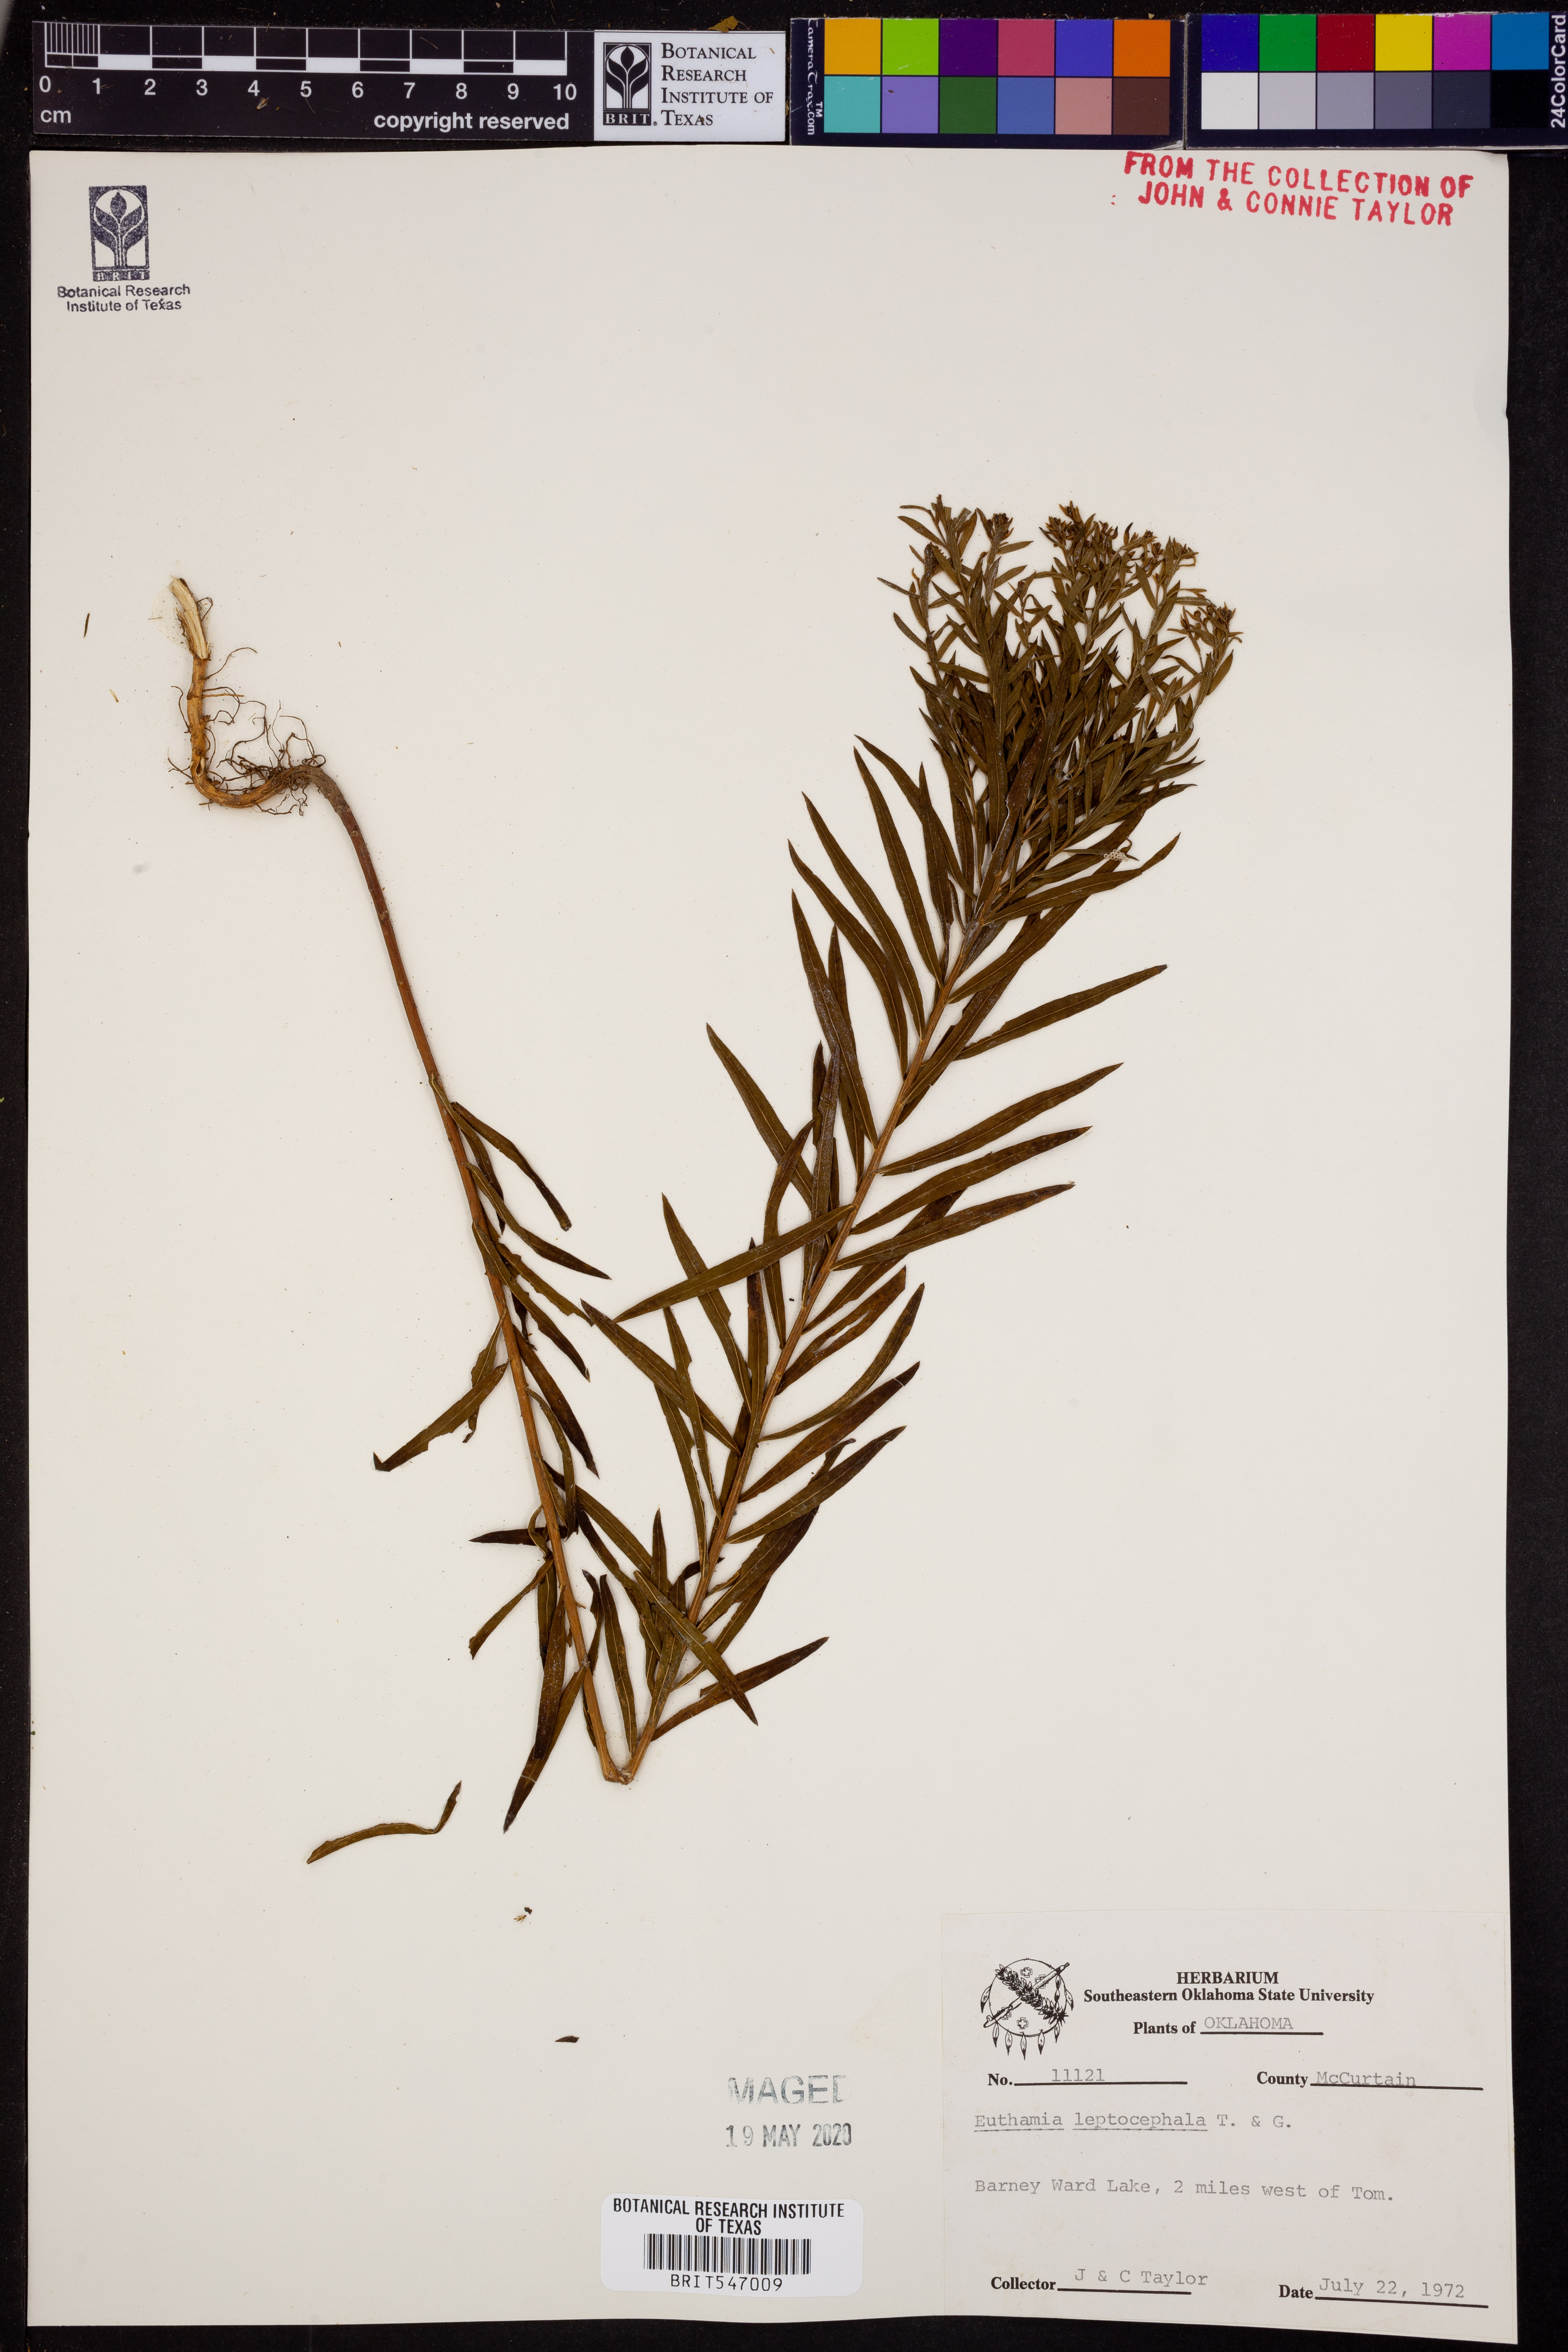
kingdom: Plantae
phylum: Tracheophyta
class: Magnoliopsida
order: Asterales
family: Asteraceae
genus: Euthamia
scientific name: Euthamia leptocephala
